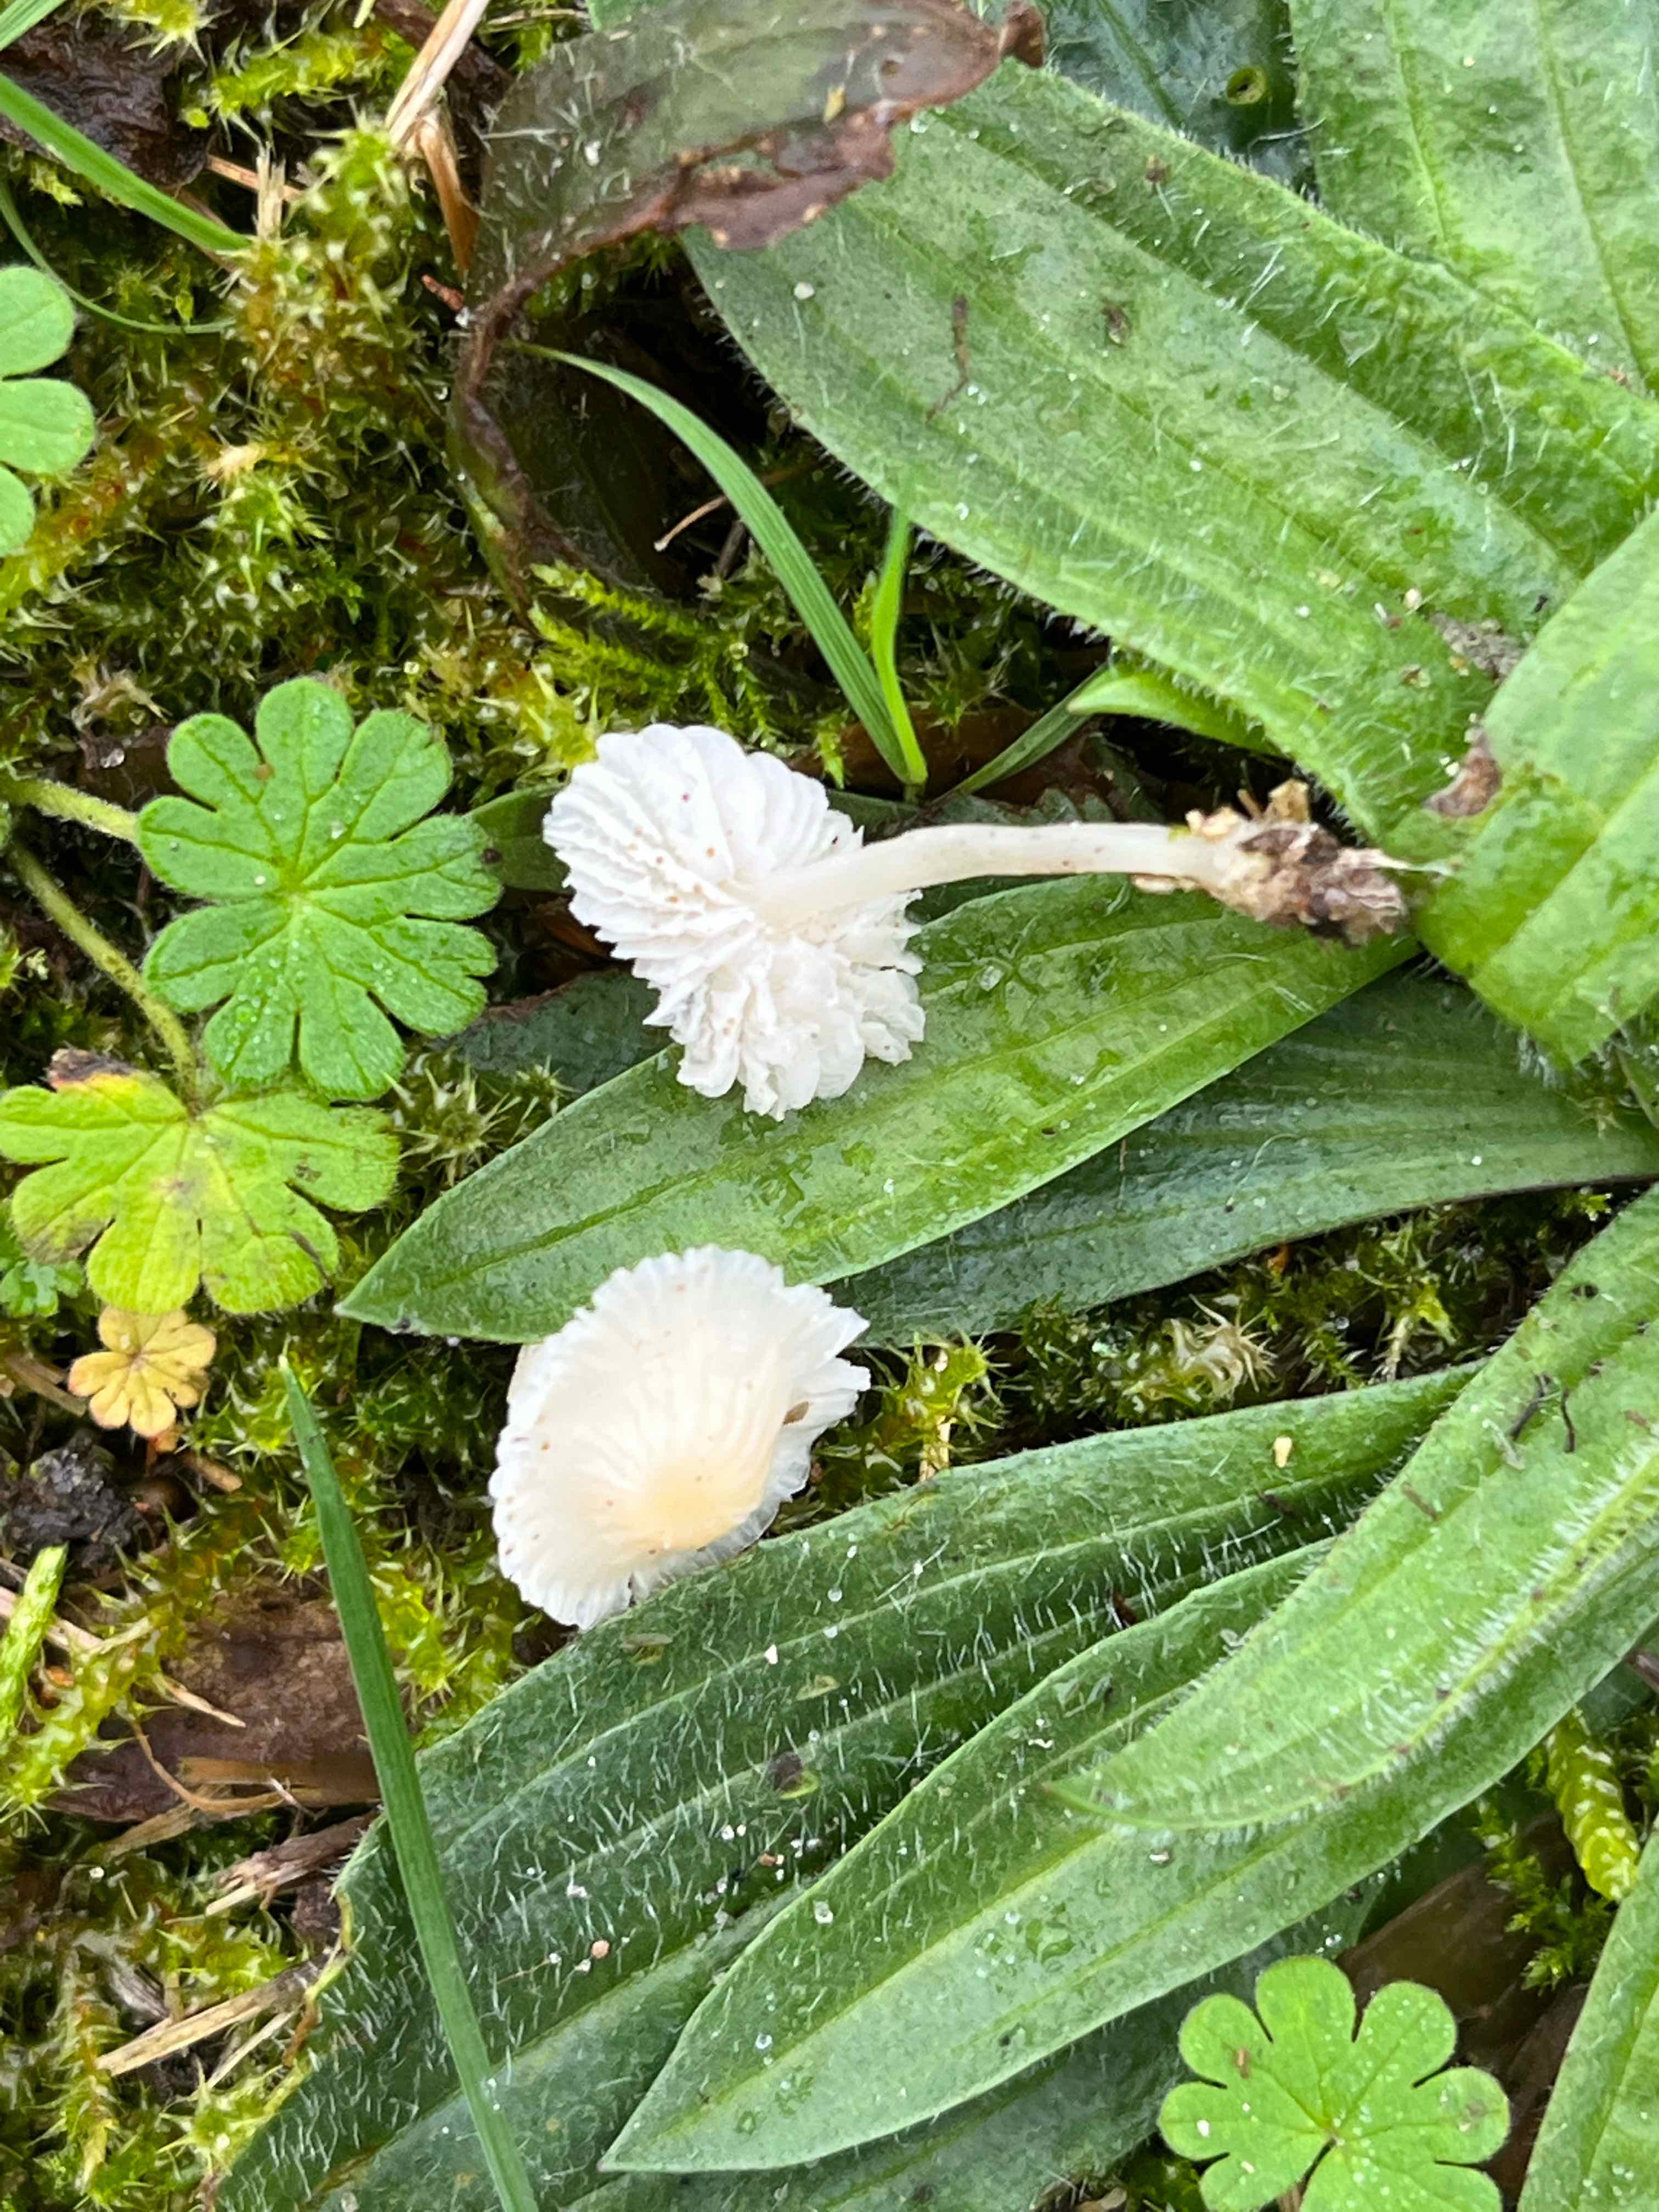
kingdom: Fungi
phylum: Basidiomycota
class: Agaricomycetes
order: Agaricales
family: Mycenaceae
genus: Atheniella
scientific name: Atheniella flavoalba
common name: gulhvid huesvamp
